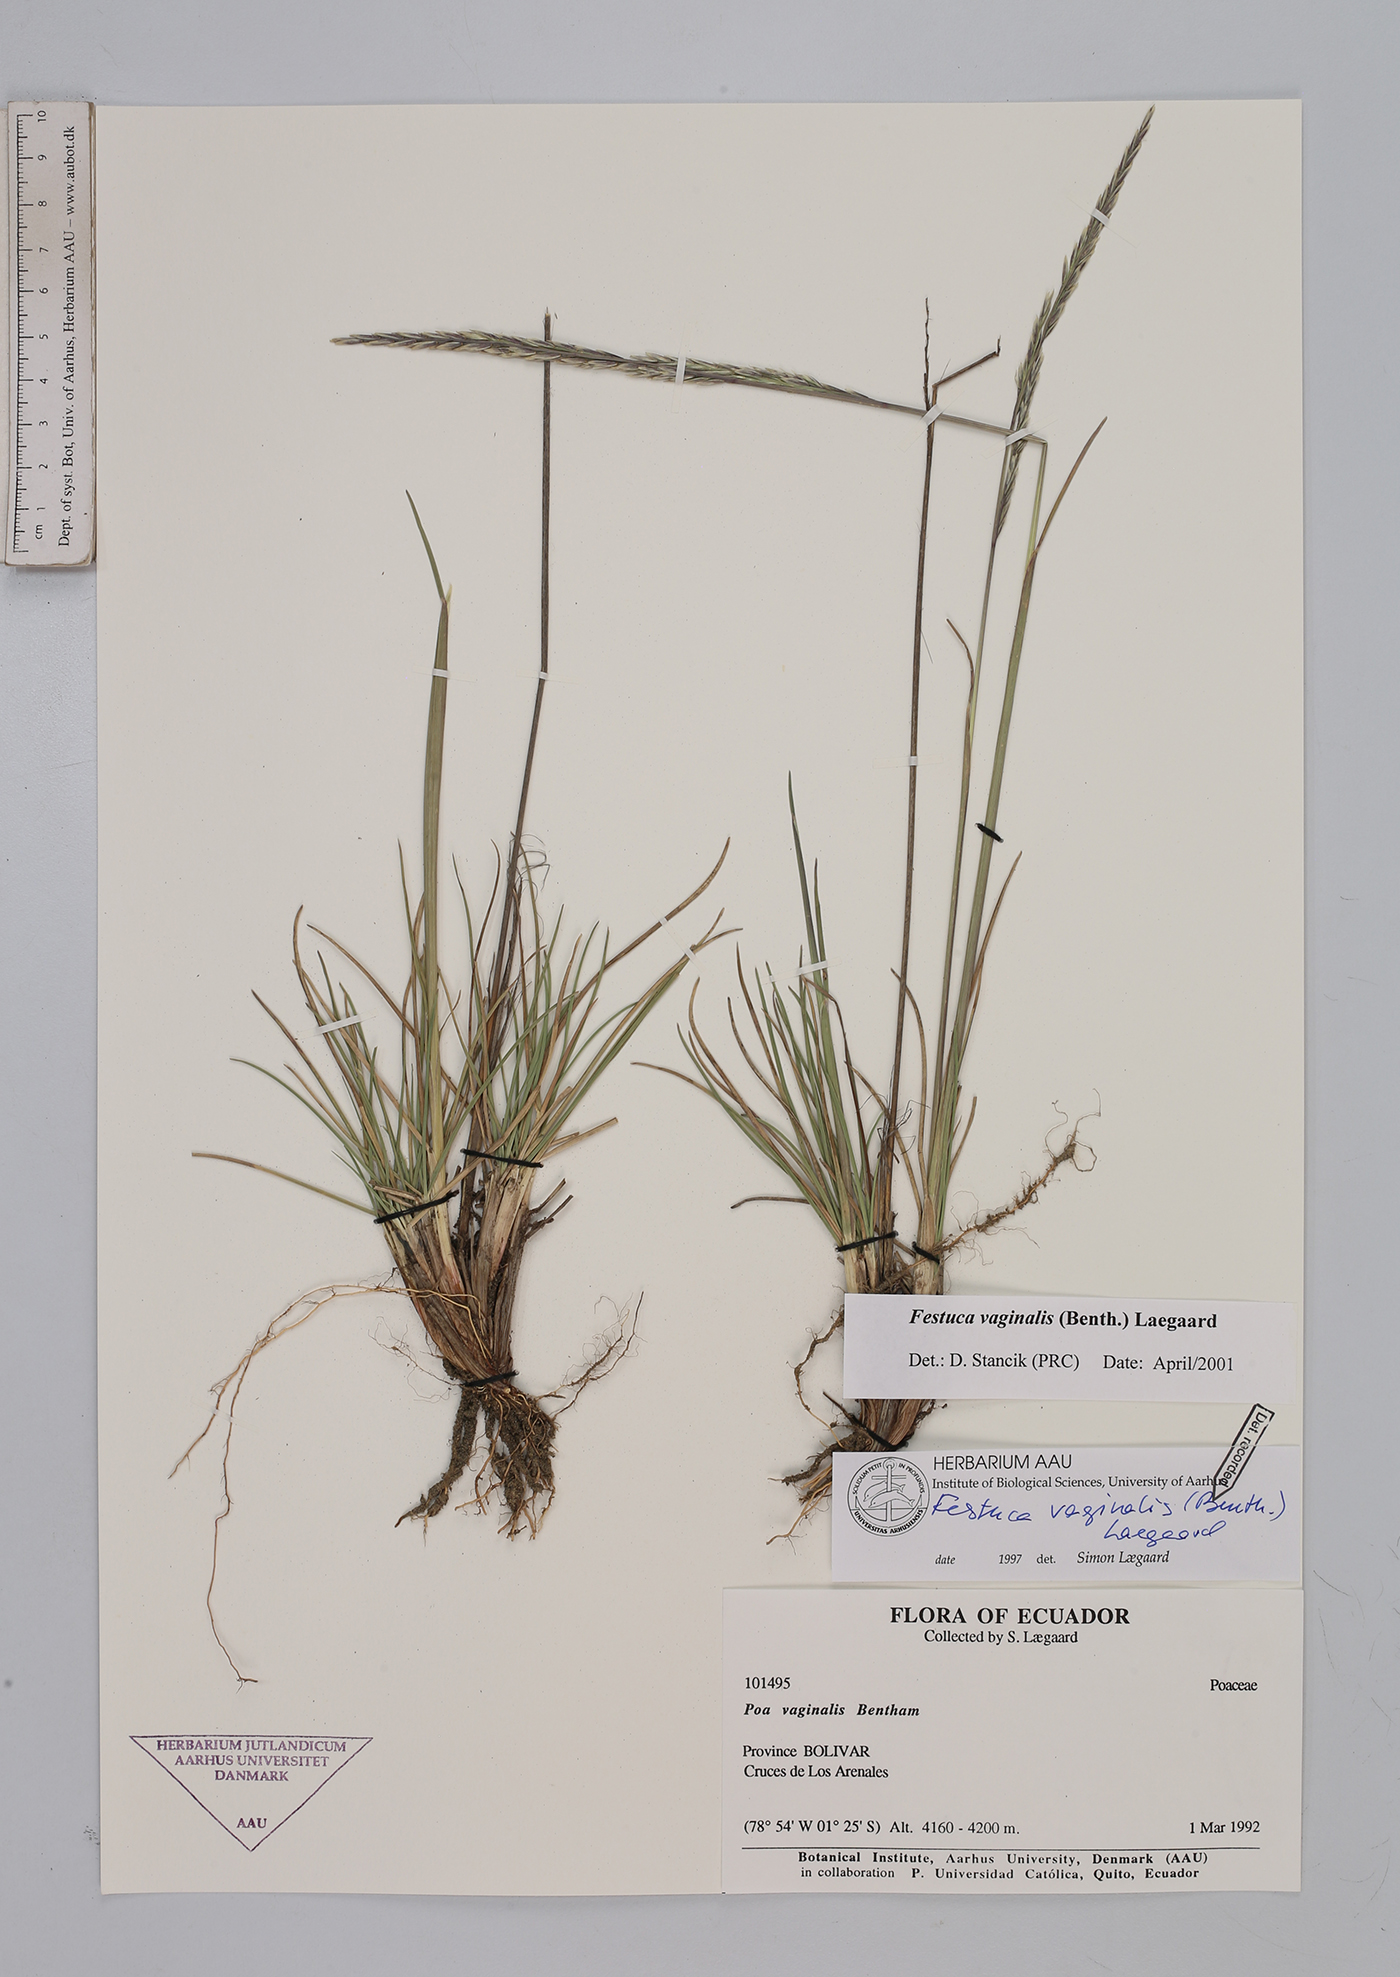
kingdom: Plantae
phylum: Tracheophyta
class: Liliopsida
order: Poales
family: Poaceae
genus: Festuca
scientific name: Festuca vaginalis
